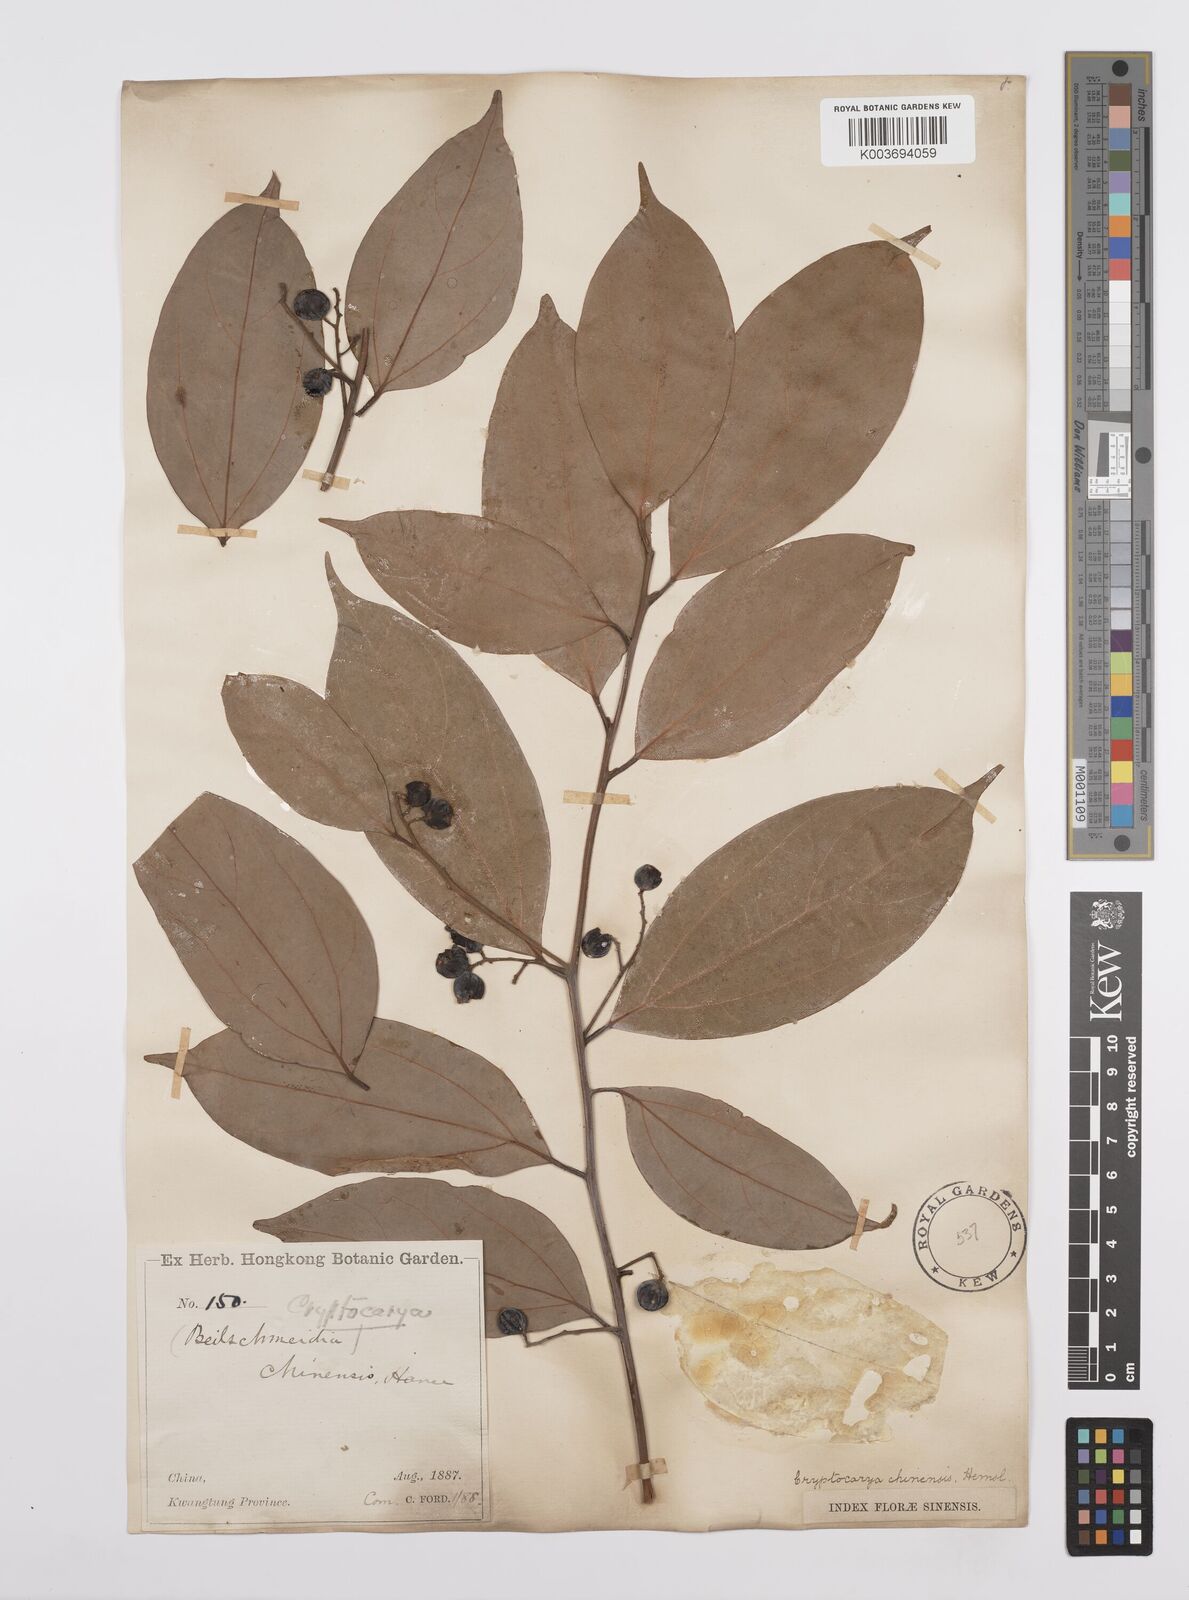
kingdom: Plantae
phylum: Tracheophyta
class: Magnoliopsida
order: Laurales
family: Lauraceae
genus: Cryptocarya
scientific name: Cryptocarya chinensis
